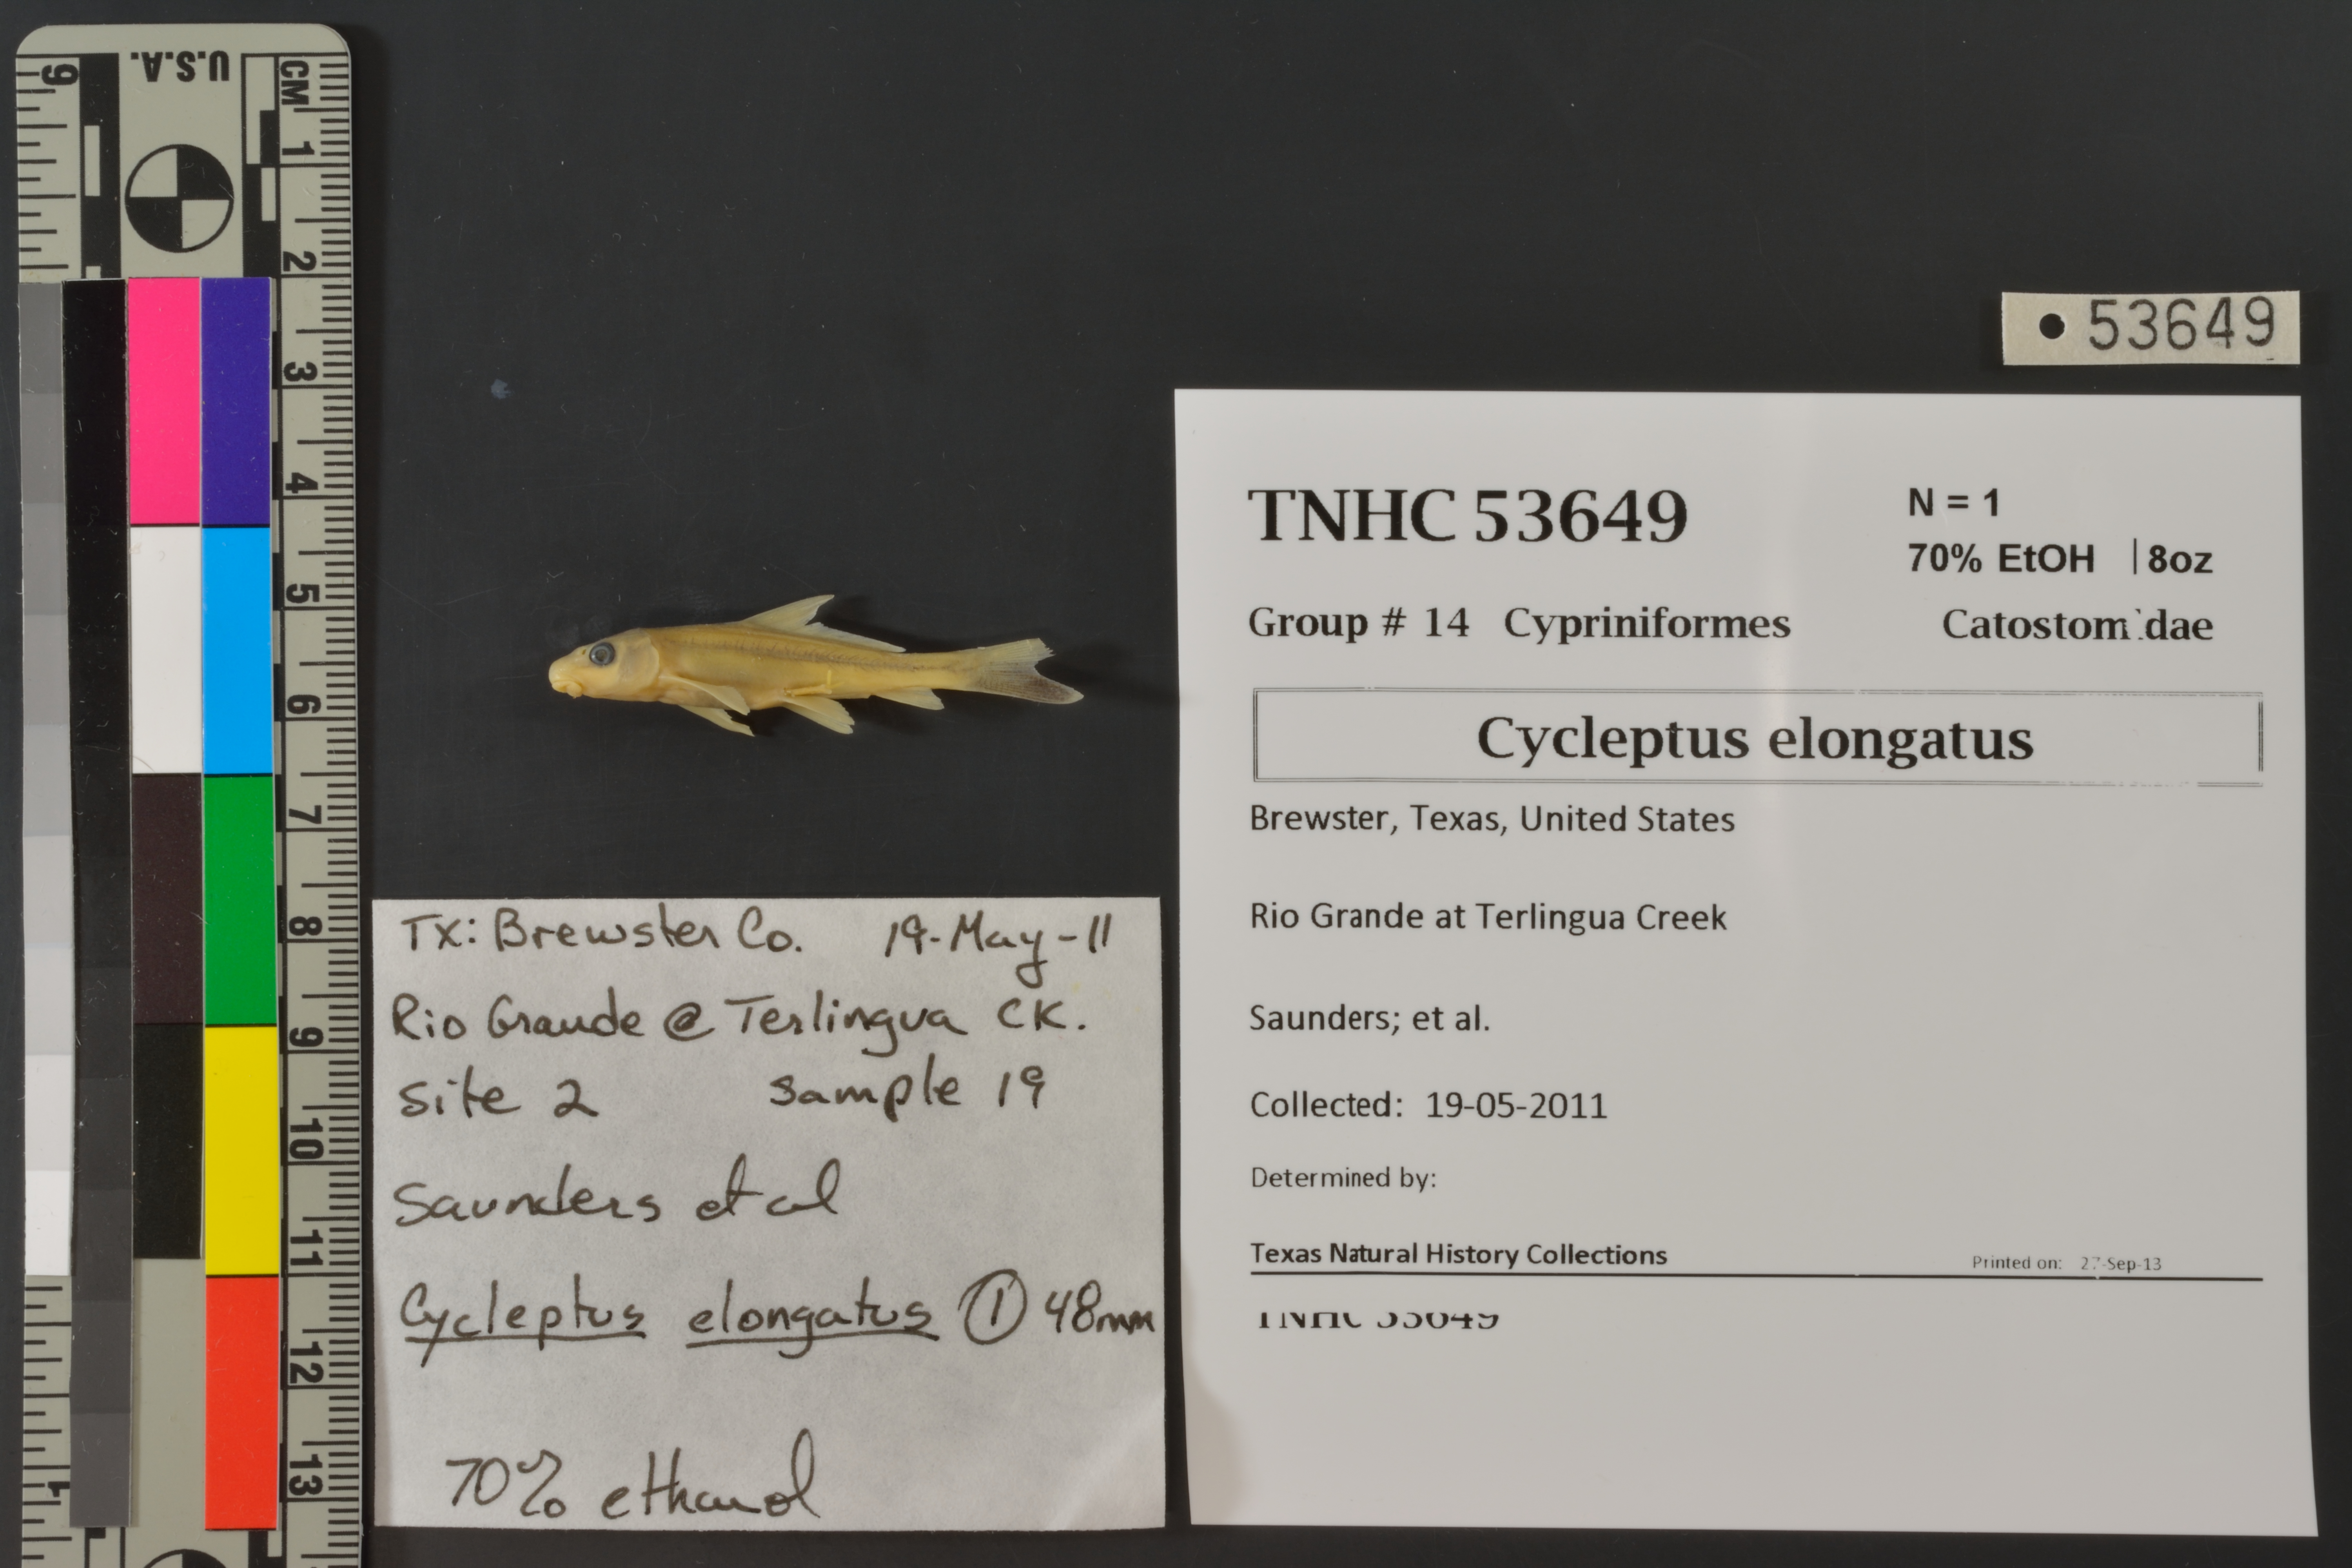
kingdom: Animalia
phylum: Chordata
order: Cypriniformes
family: Catostomidae
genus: Cycleptus
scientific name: Cycleptus elongatus
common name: Blue sucker
